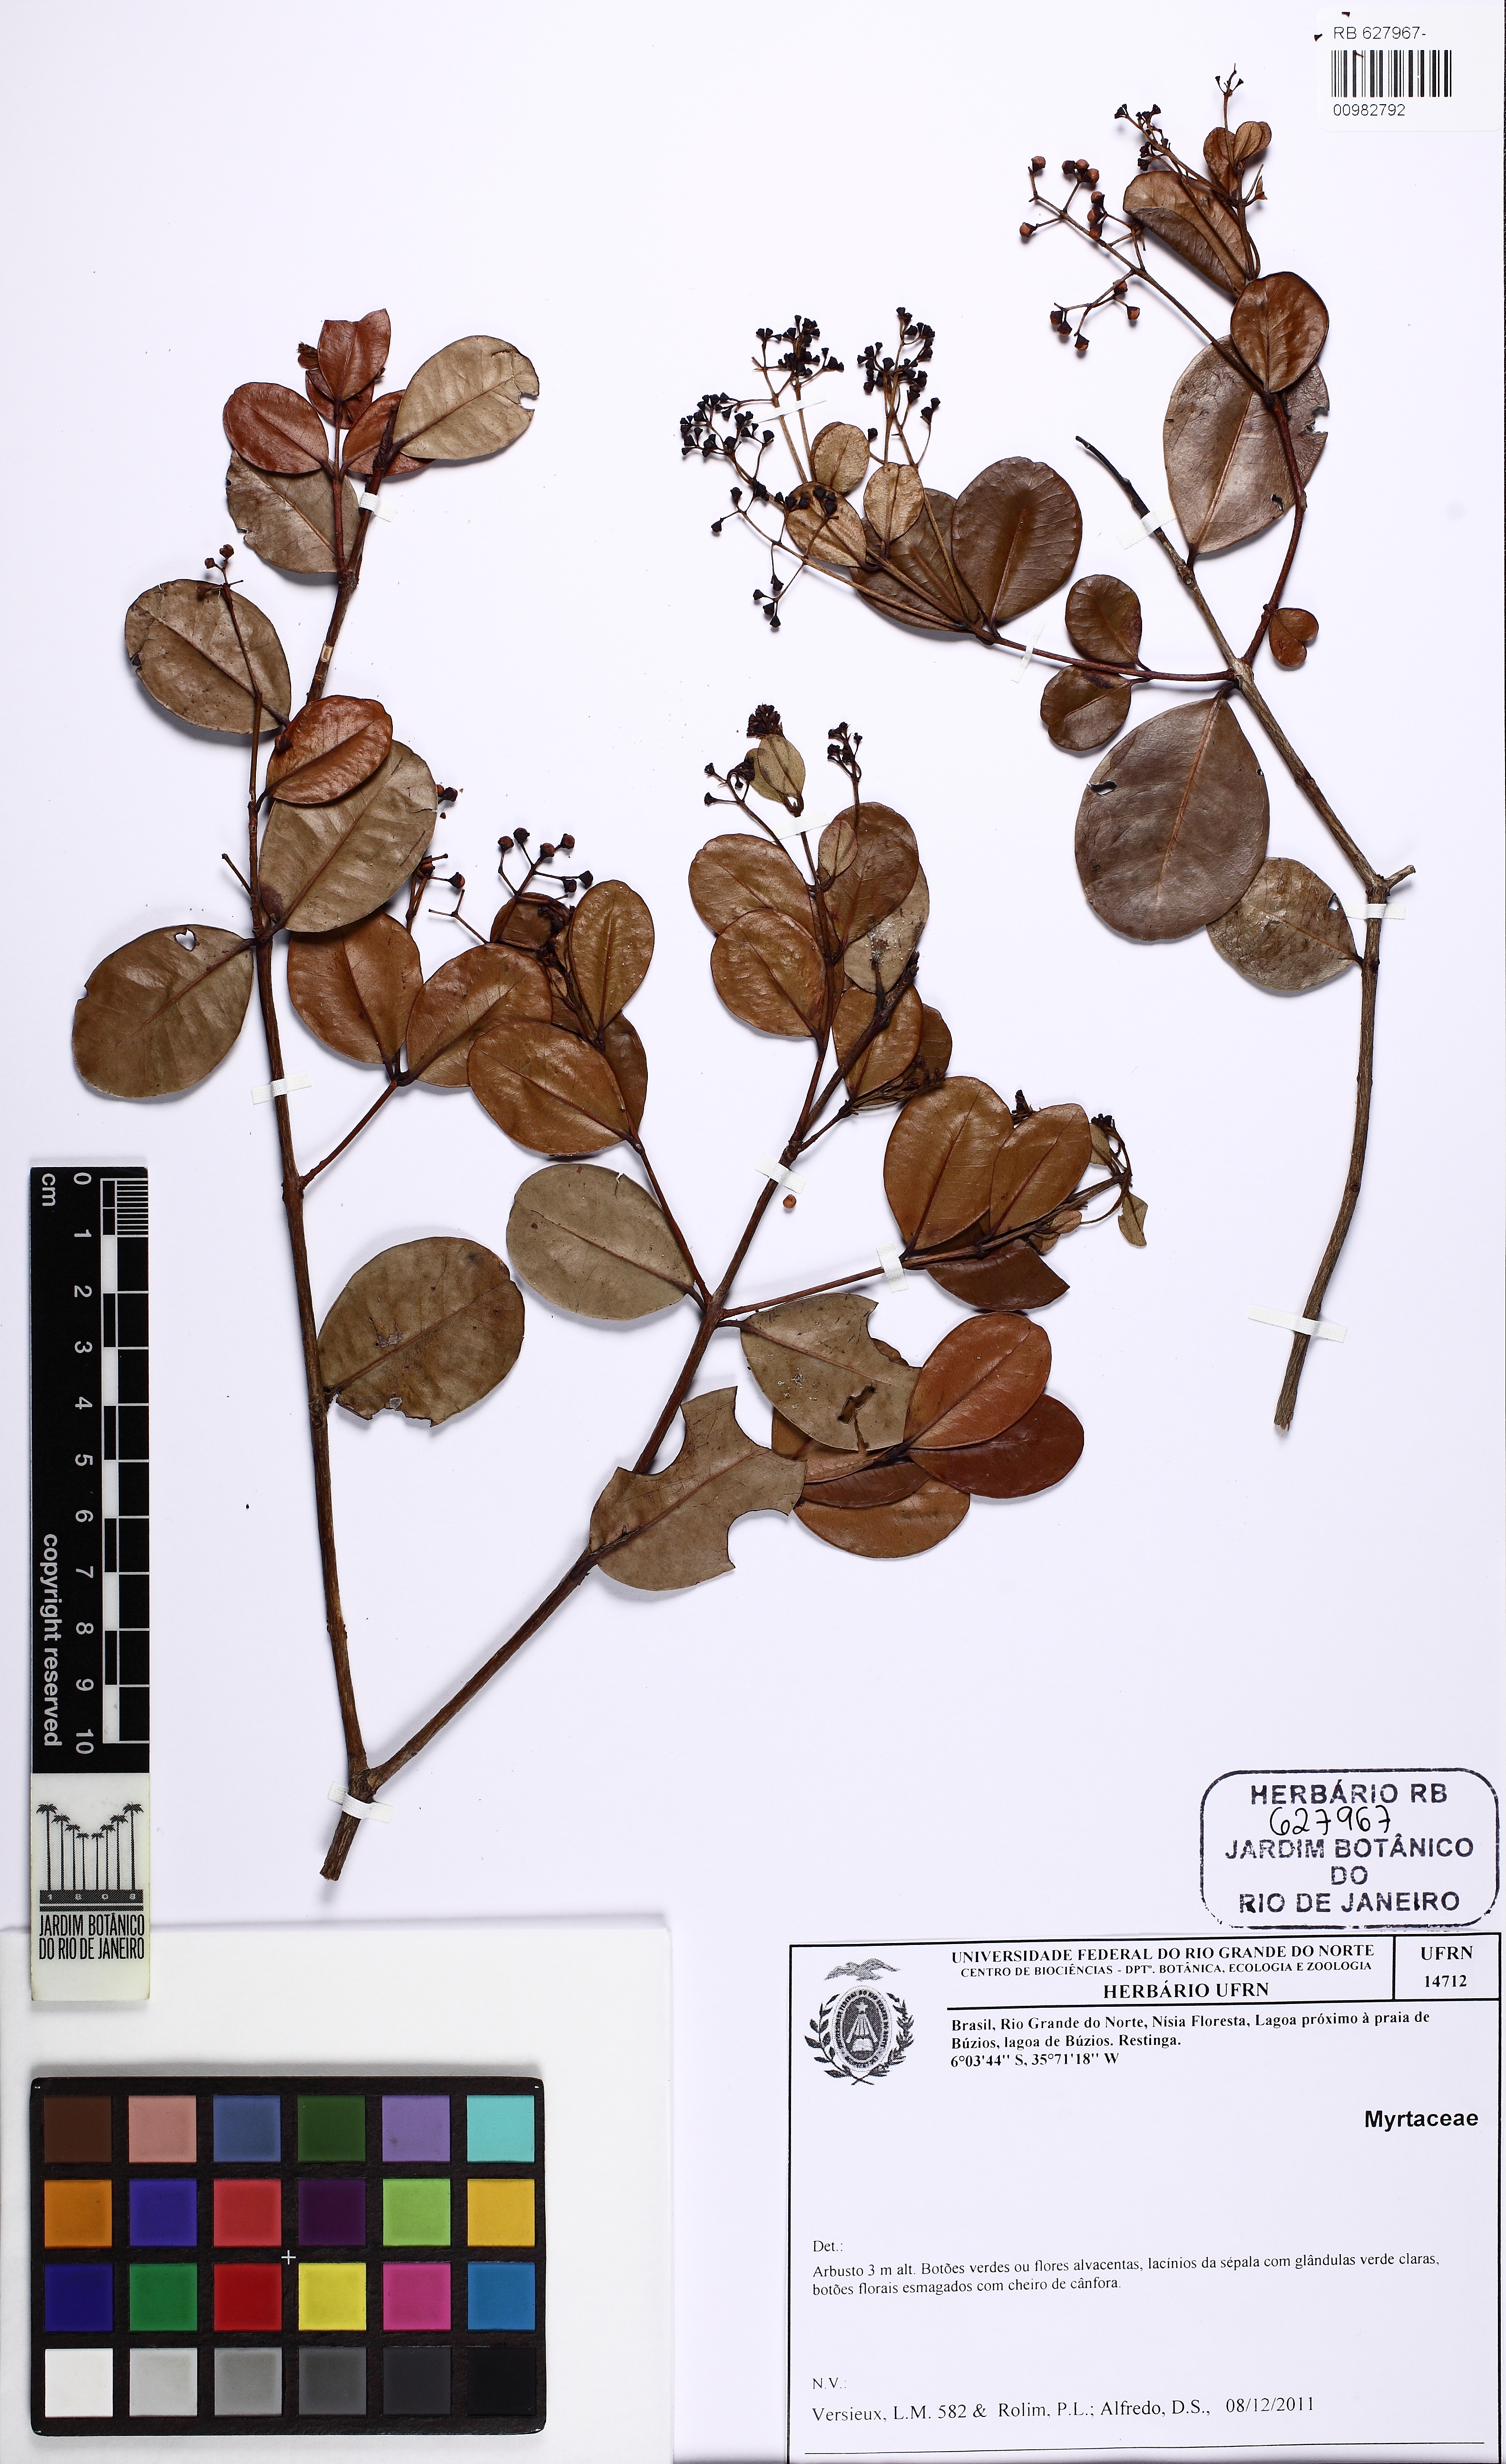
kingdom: Plantae
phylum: Tracheophyta
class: Magnoliopsida
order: Myrtales
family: Myrtaceae
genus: Myrcia
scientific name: Myrcia guianensis
